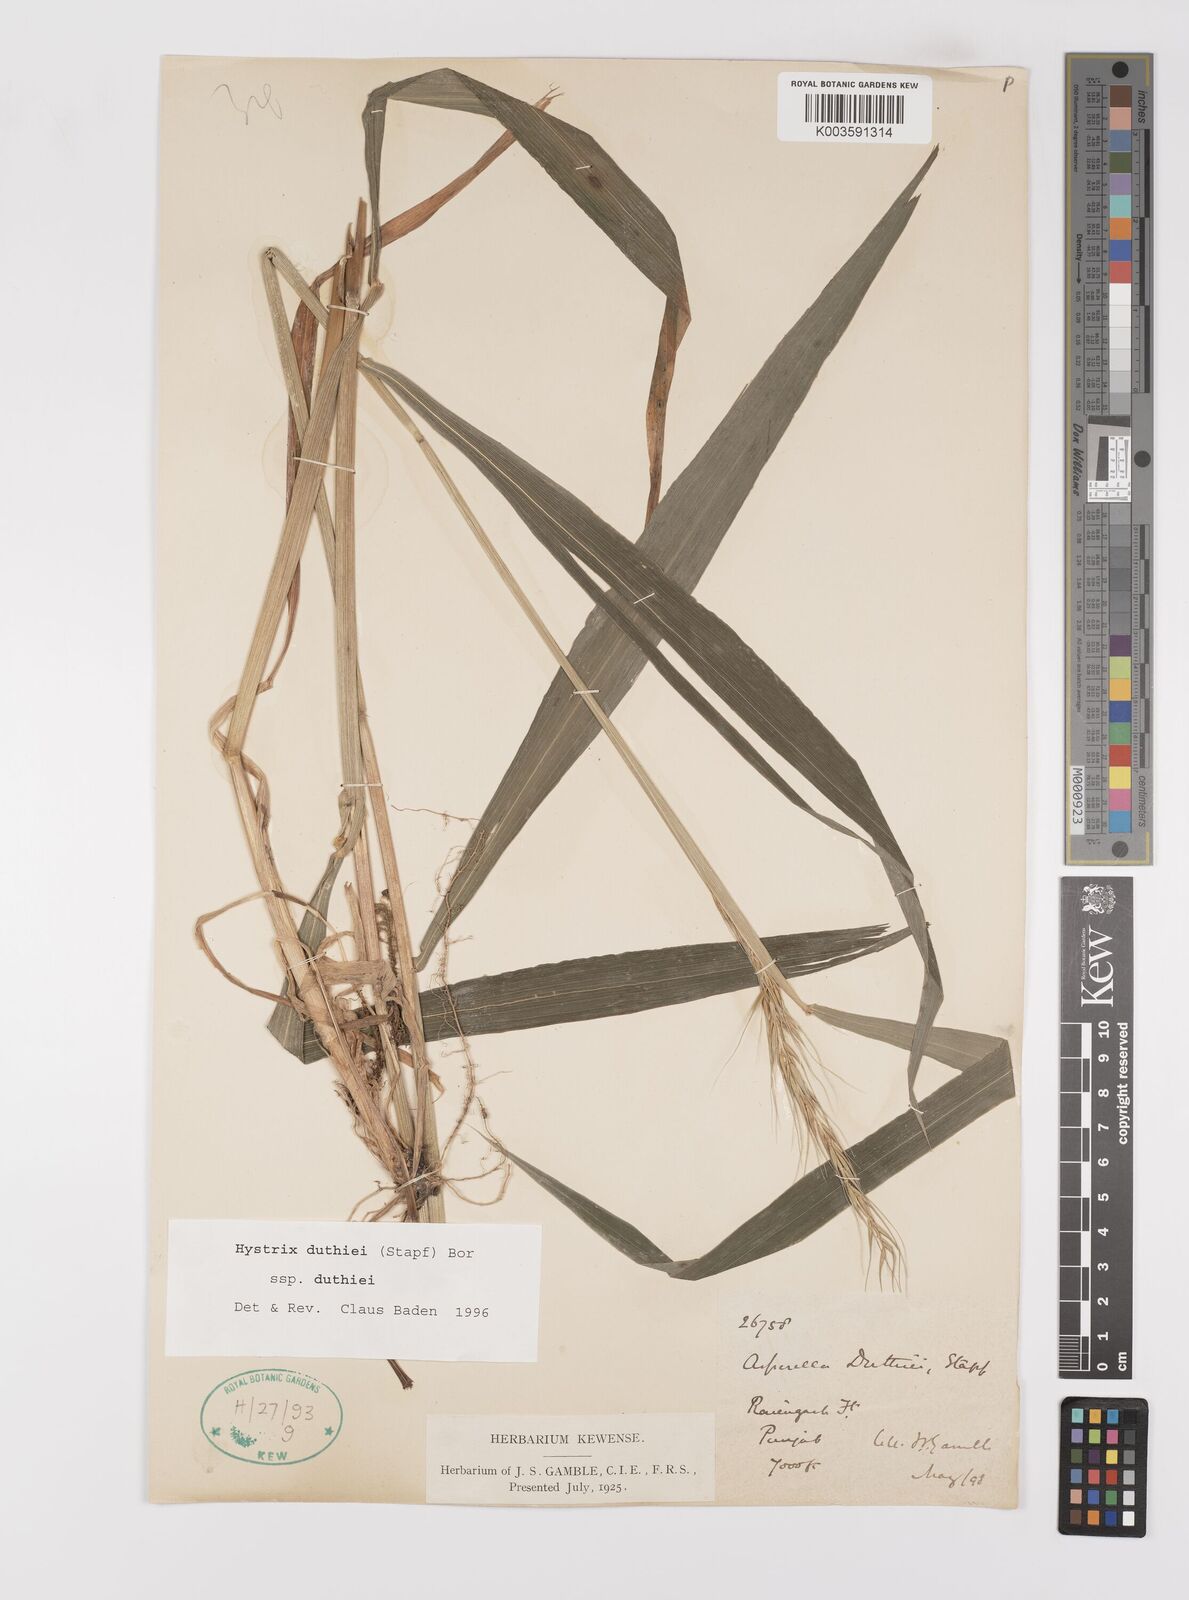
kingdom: Plantae
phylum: Tracheophyta
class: Liliopsida
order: Poales
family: Poaceae
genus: Leymus
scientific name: Leymus duthiei
